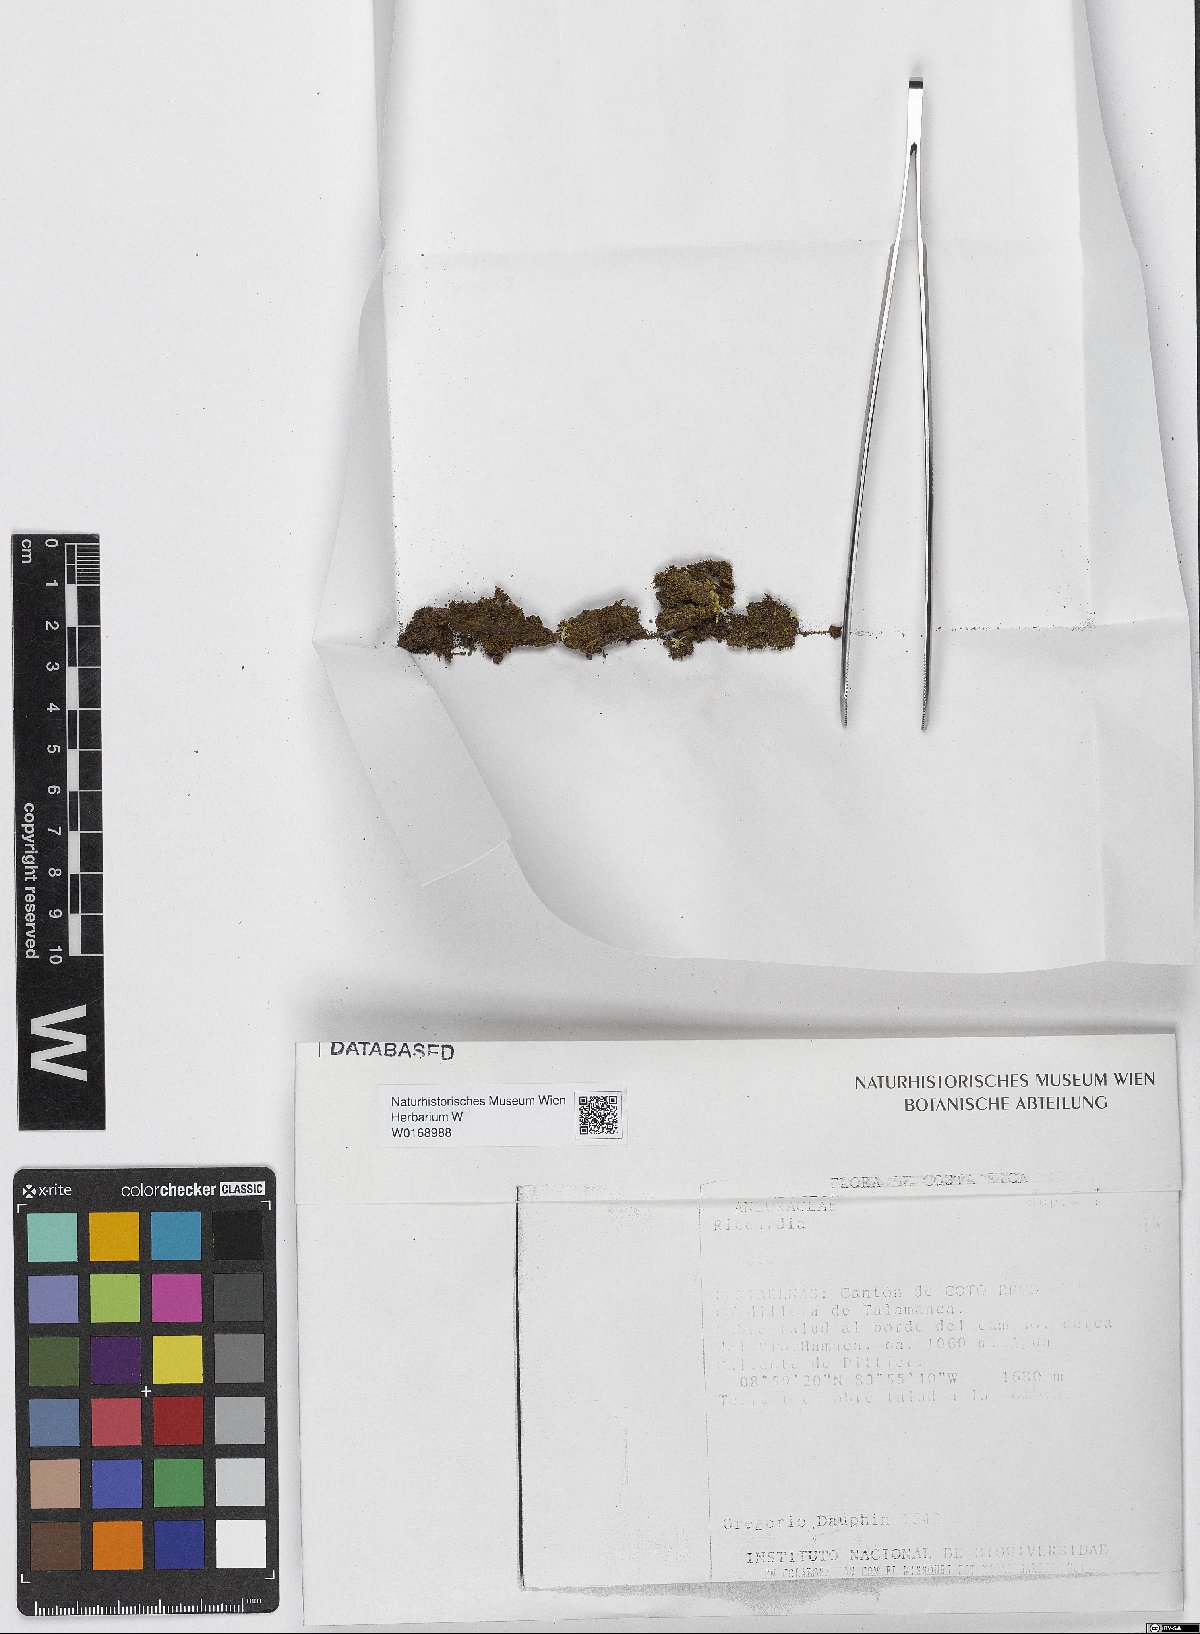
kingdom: Plantae
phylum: Marchantiophyta
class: Jungermanniopsida
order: Metzgeriales
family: Aneuraceae
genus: Riccardia
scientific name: Riccardia
